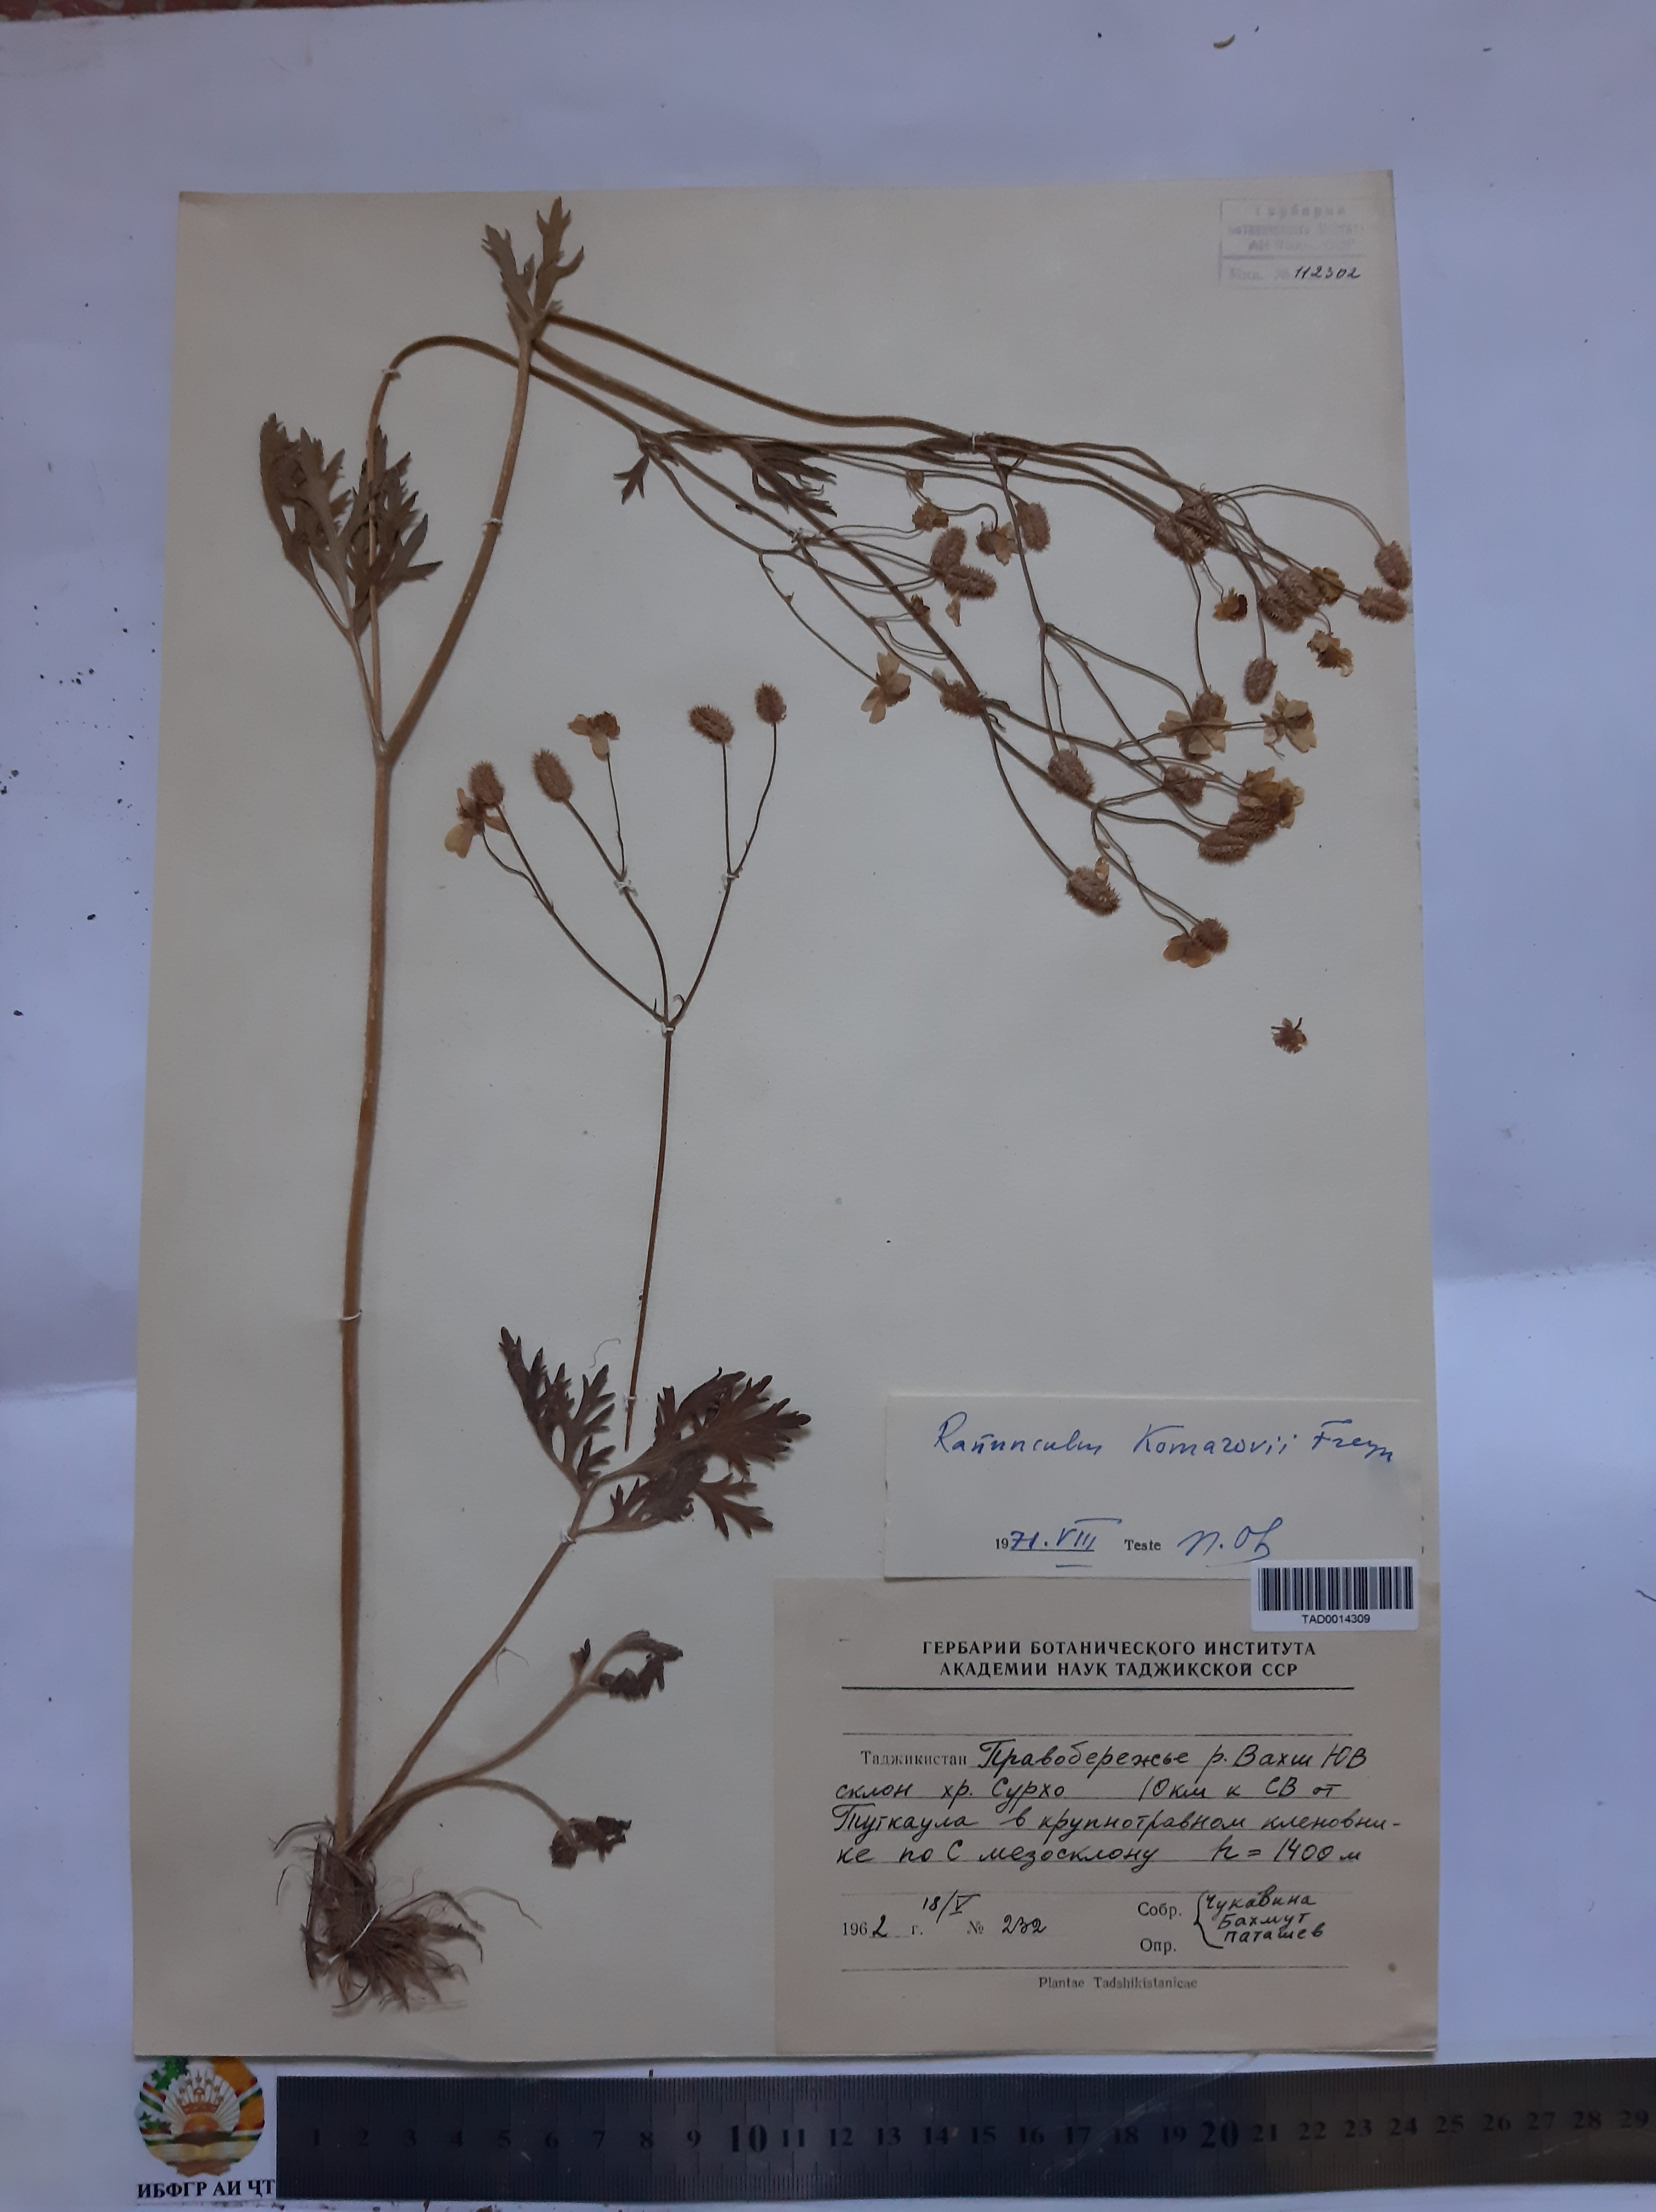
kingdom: Plantae
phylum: Tracheophyta
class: Magnoliopsida
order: Ranunculales
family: Ranunculaceae
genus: Ranunculus
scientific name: Ranunculus komarovii
